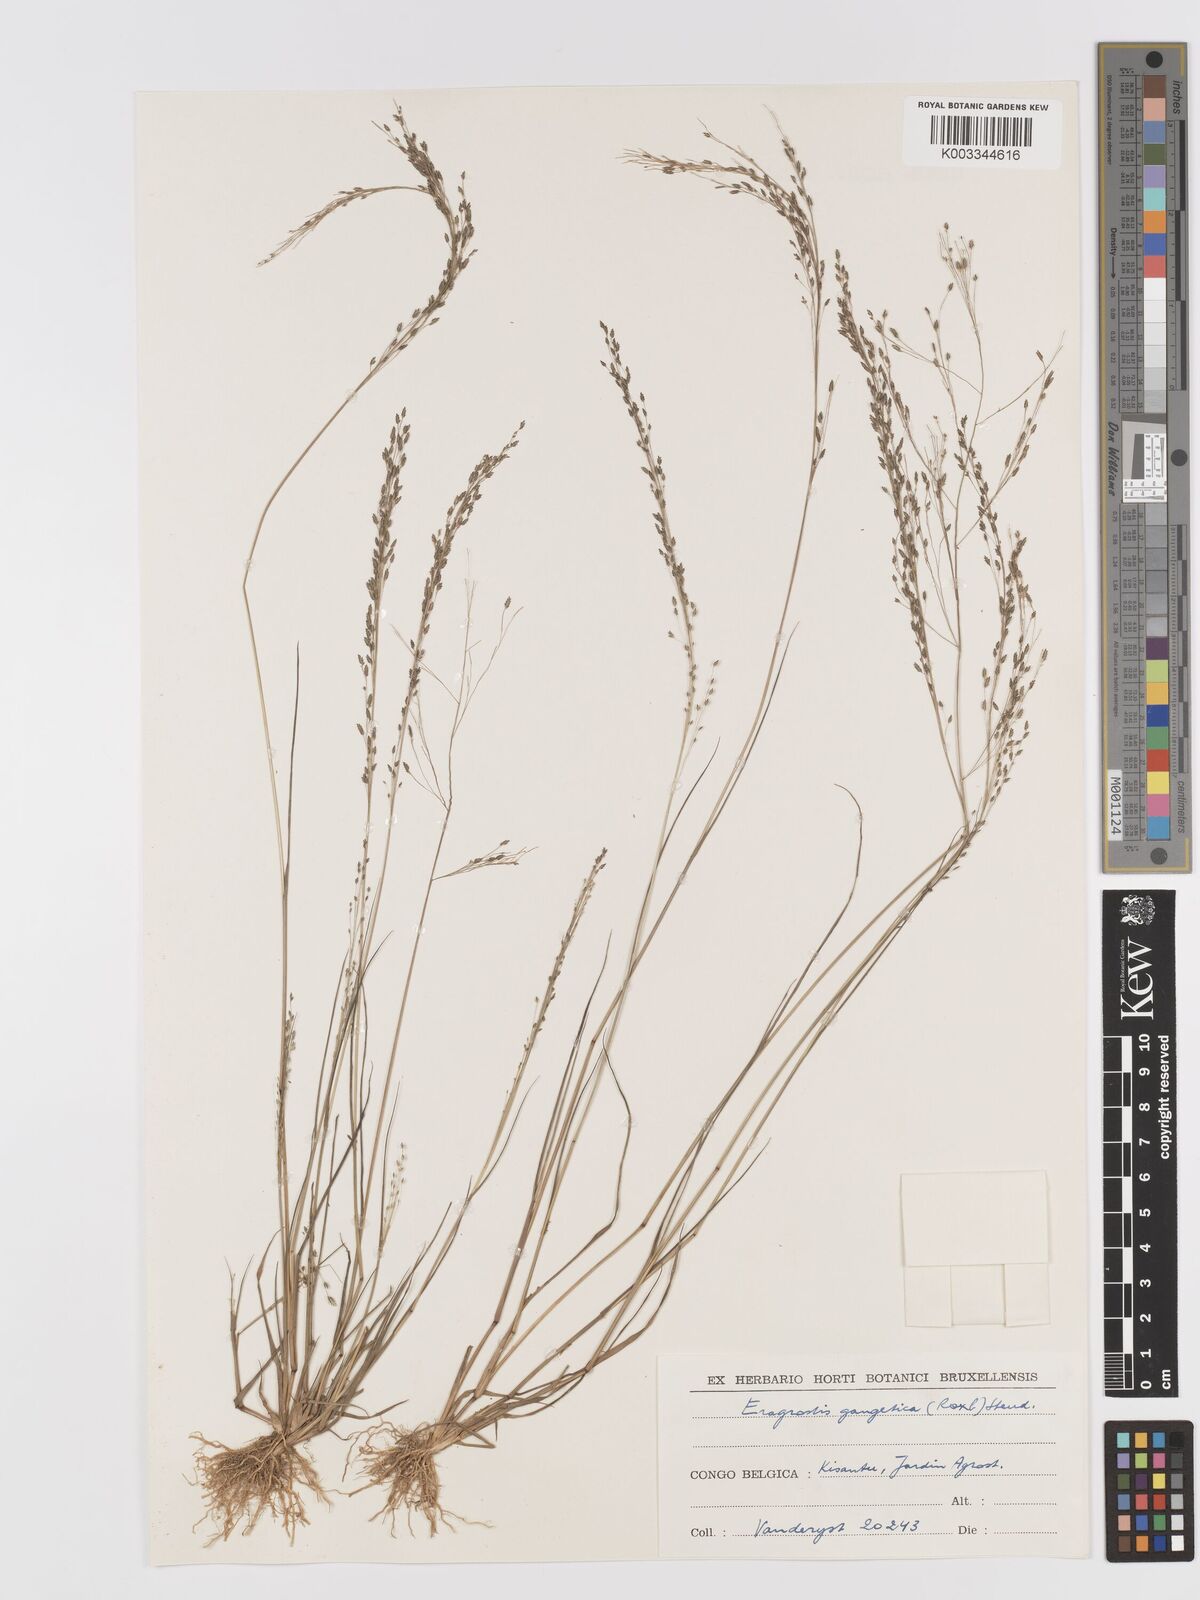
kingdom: Plantae
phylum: Tracheophyta
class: Liliopsida
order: Poales
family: Poaceae
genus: Eragrostis
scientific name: Eragrostis gangetica
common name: Slimflower lovegrass
